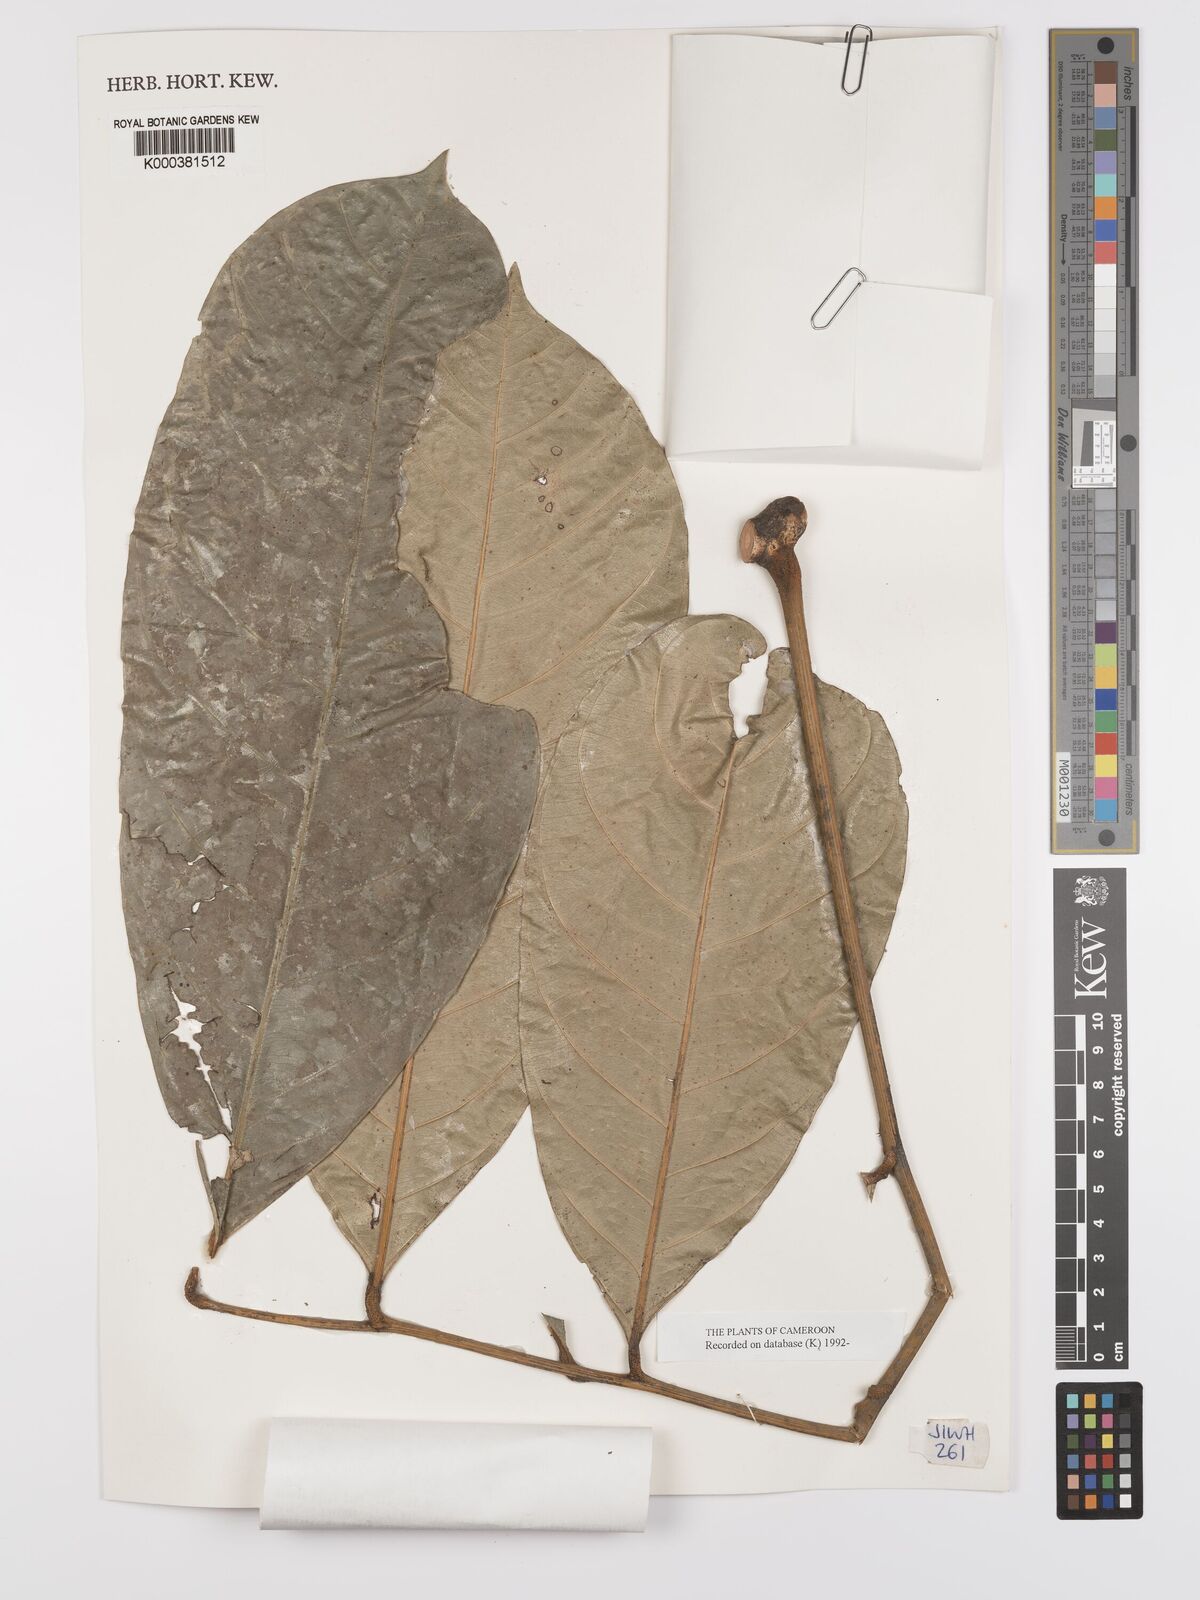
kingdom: Plantae
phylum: Tracheophyta
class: Magnoliopsida
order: Oxalidales
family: Connaraceae
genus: Jollydora
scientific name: Jollydora duparquetiana
